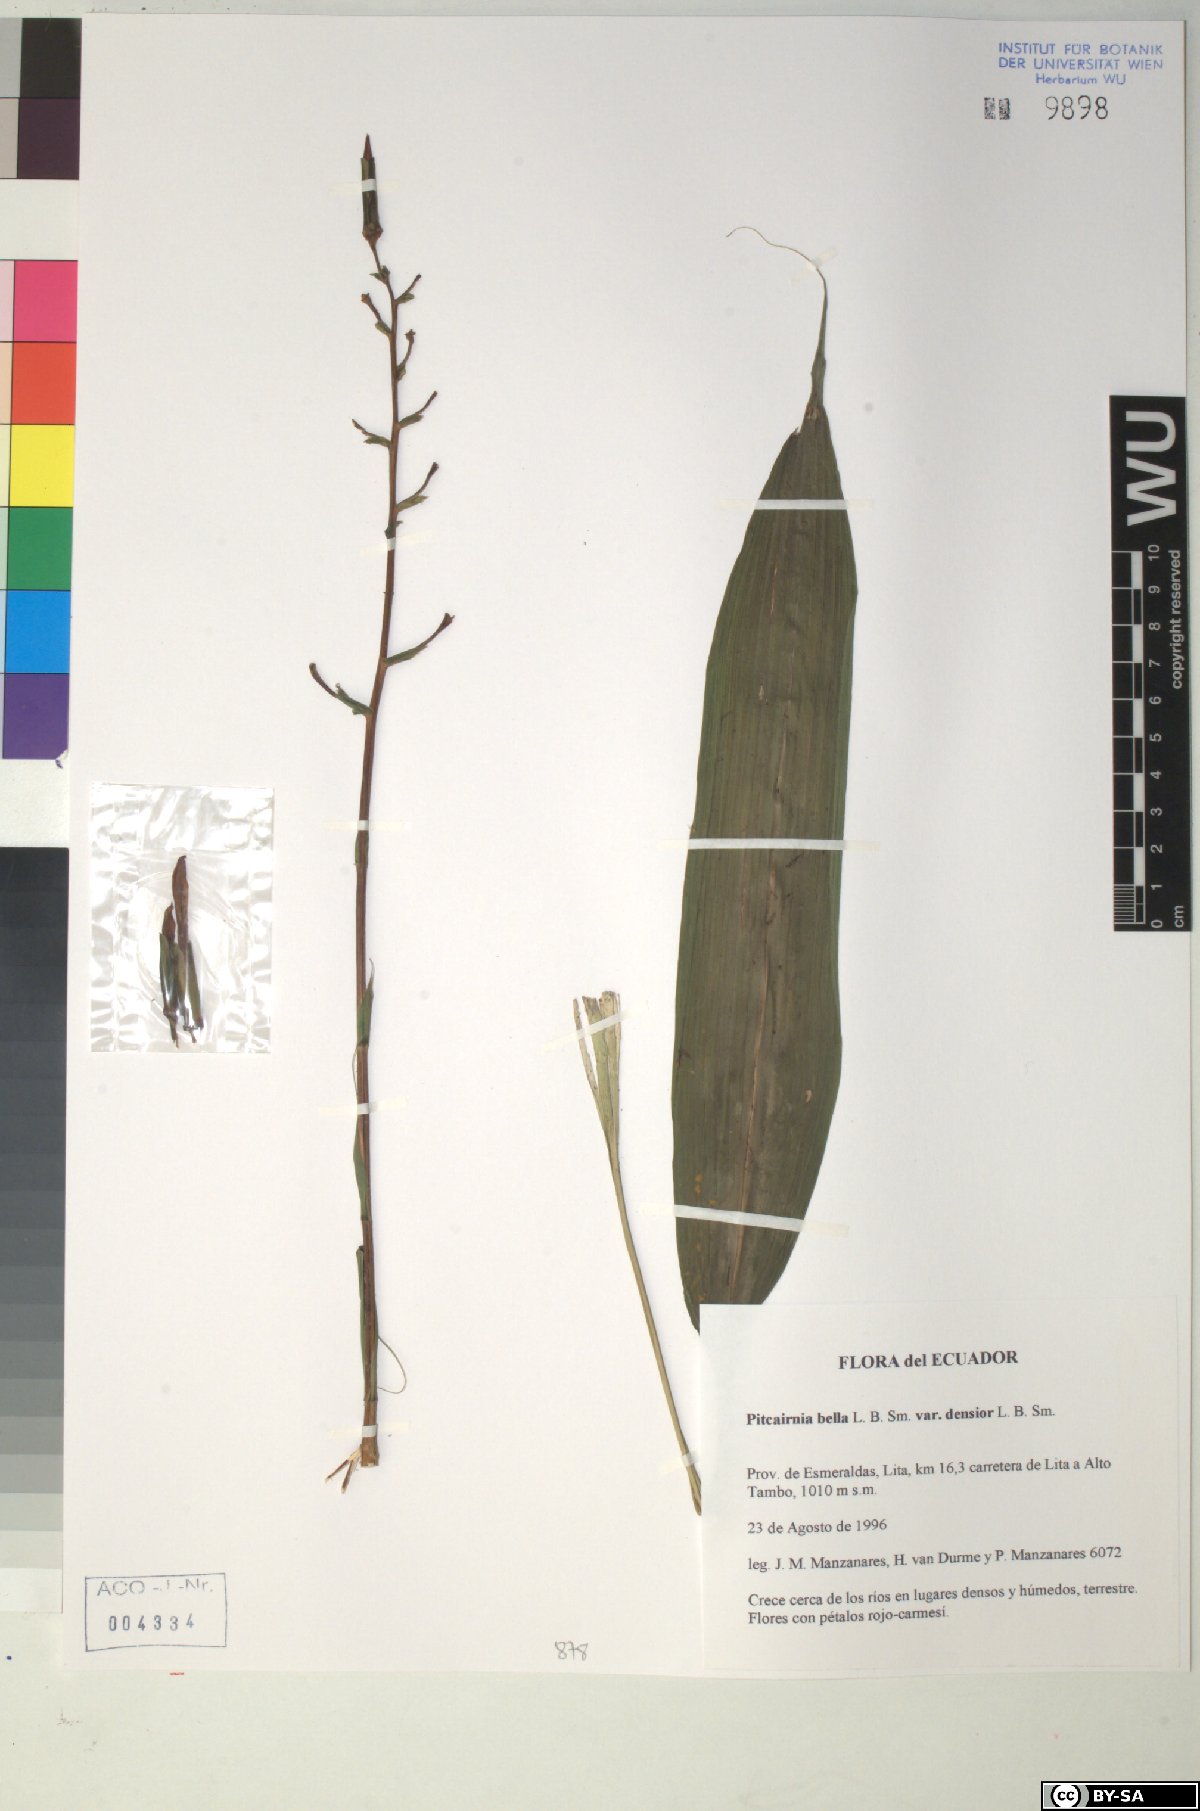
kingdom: Plantae
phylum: Tracheophyta
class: Liliopsida
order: Poales
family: Bromeliaceae
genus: Pitcairnia
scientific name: Pitcairnia bella
